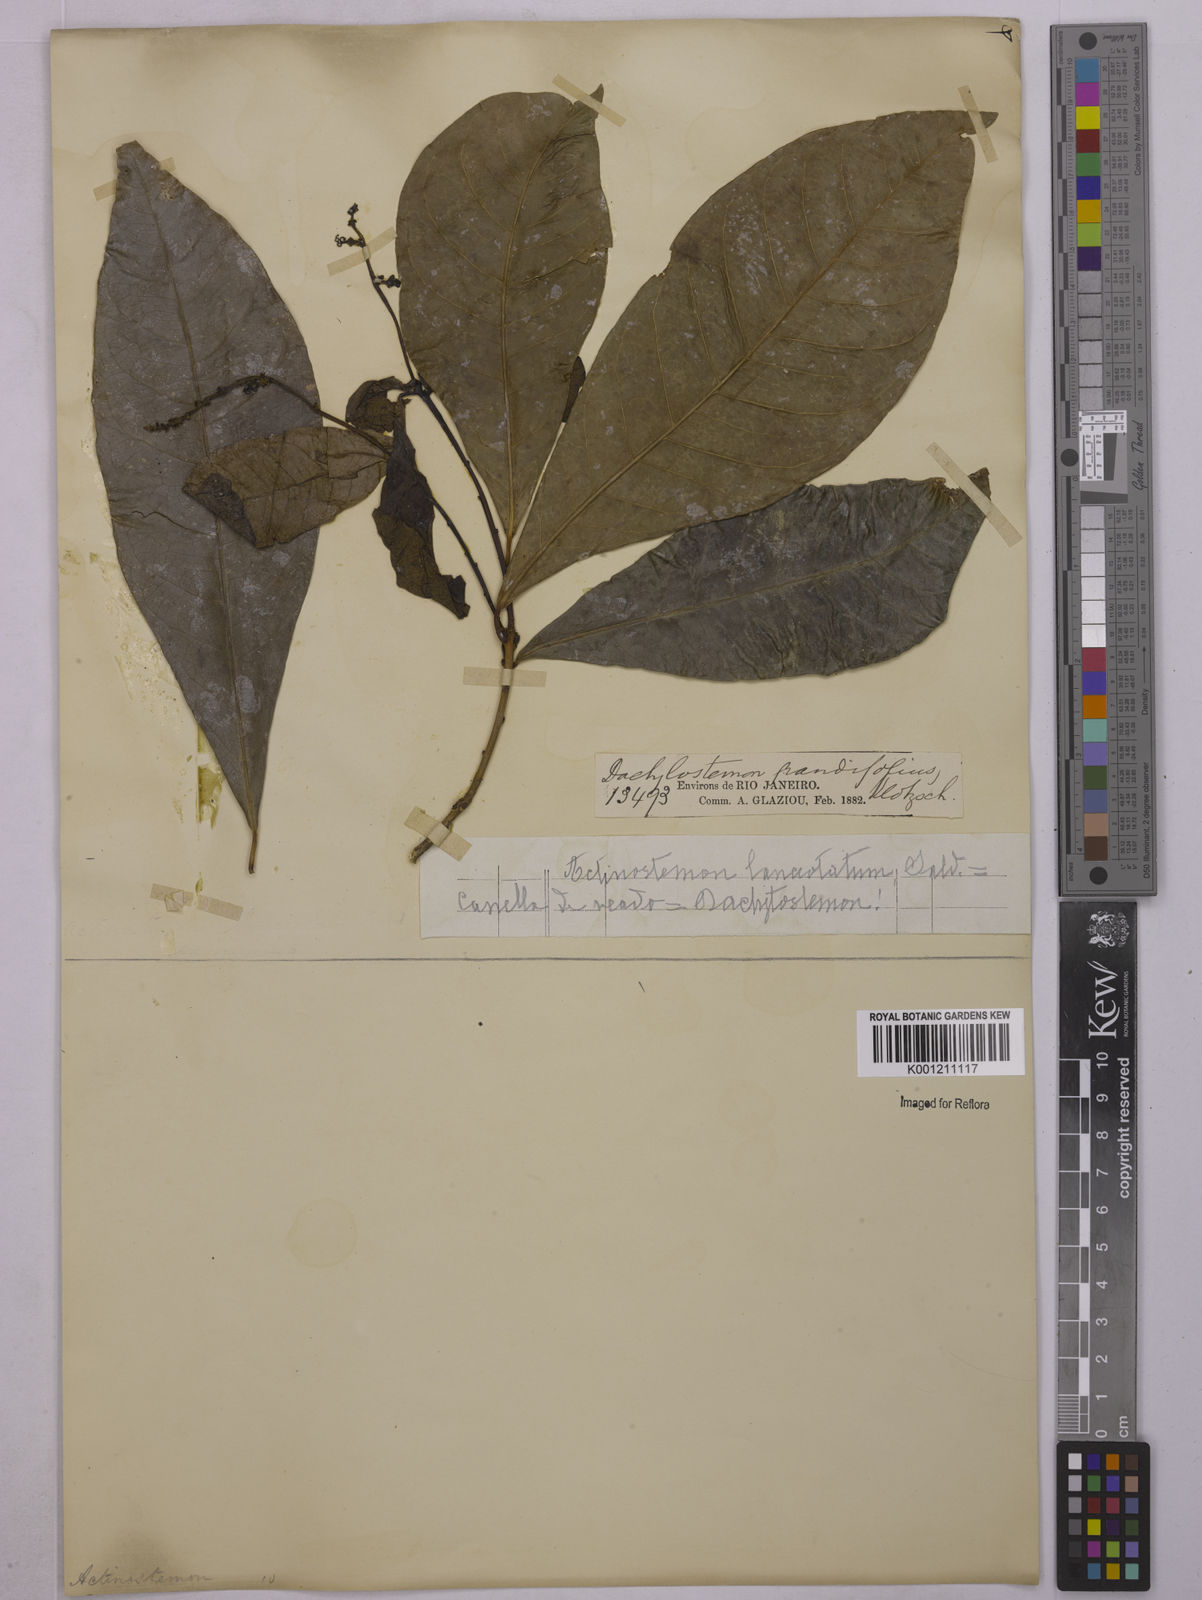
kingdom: Plantae
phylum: Tracheophyta
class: Magnoliopsida
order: Malpighiales
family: Euphorbiaceae
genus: Actinostemon
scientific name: Actinostemon
